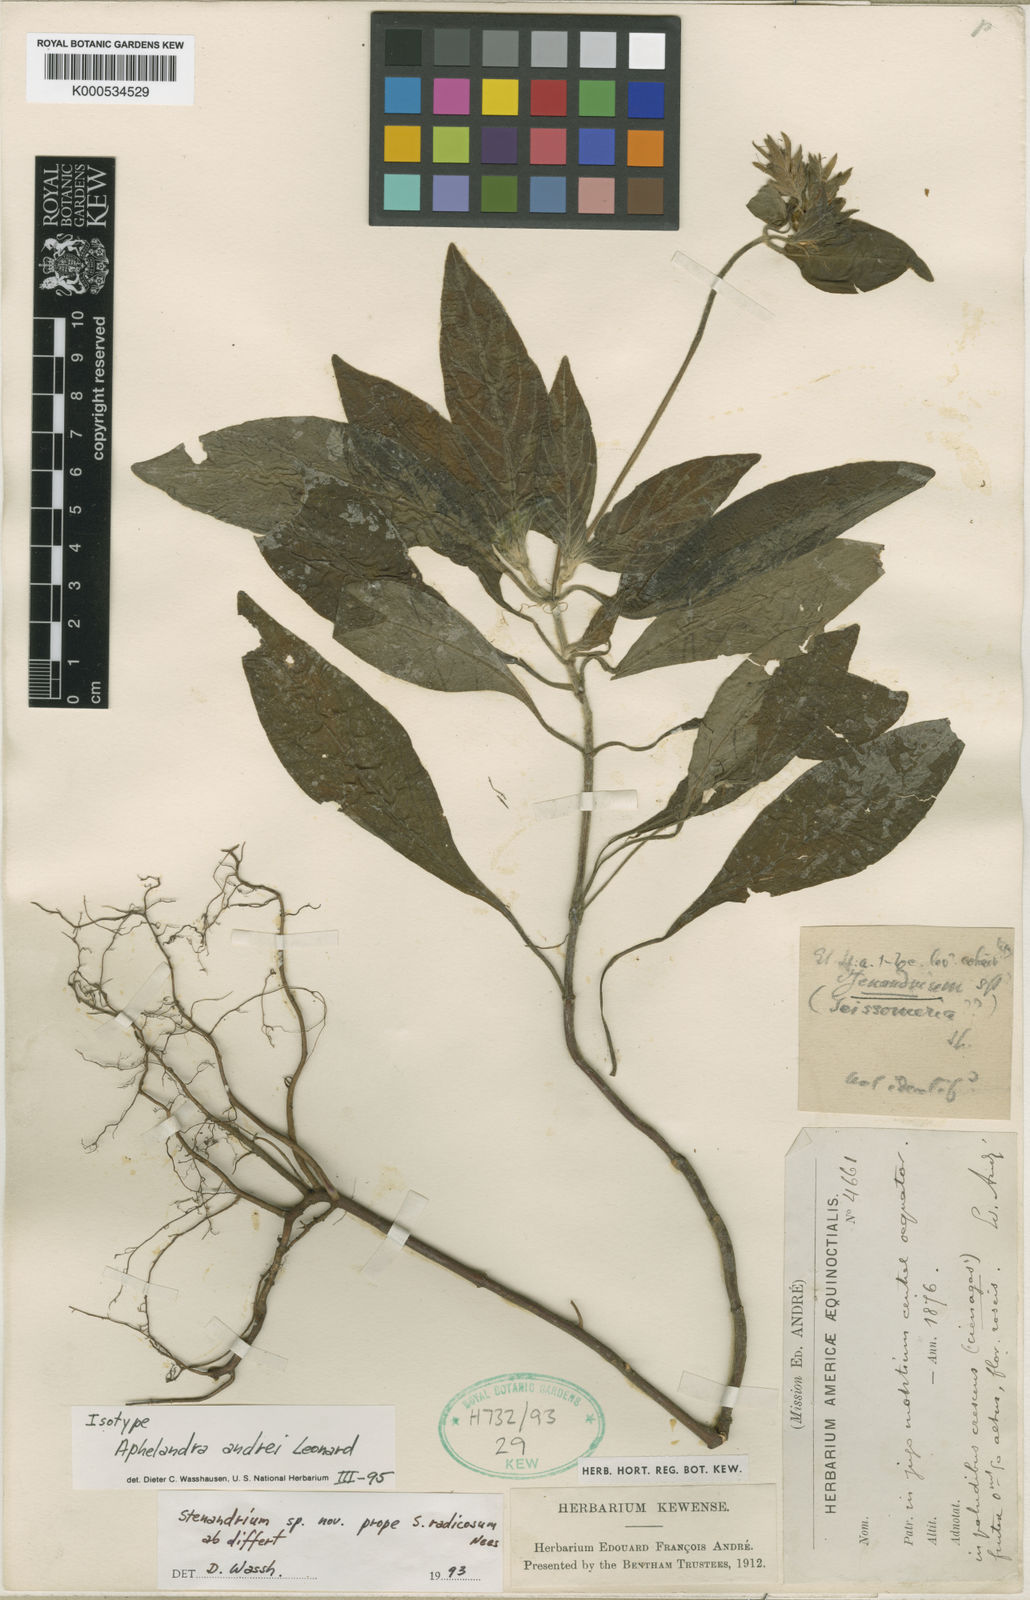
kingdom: Plantae
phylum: Tracheophyta
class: Magnoliopsida
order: Lamiales
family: Acanthaceae
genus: Stenandrium
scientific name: Stenandrium andrei
